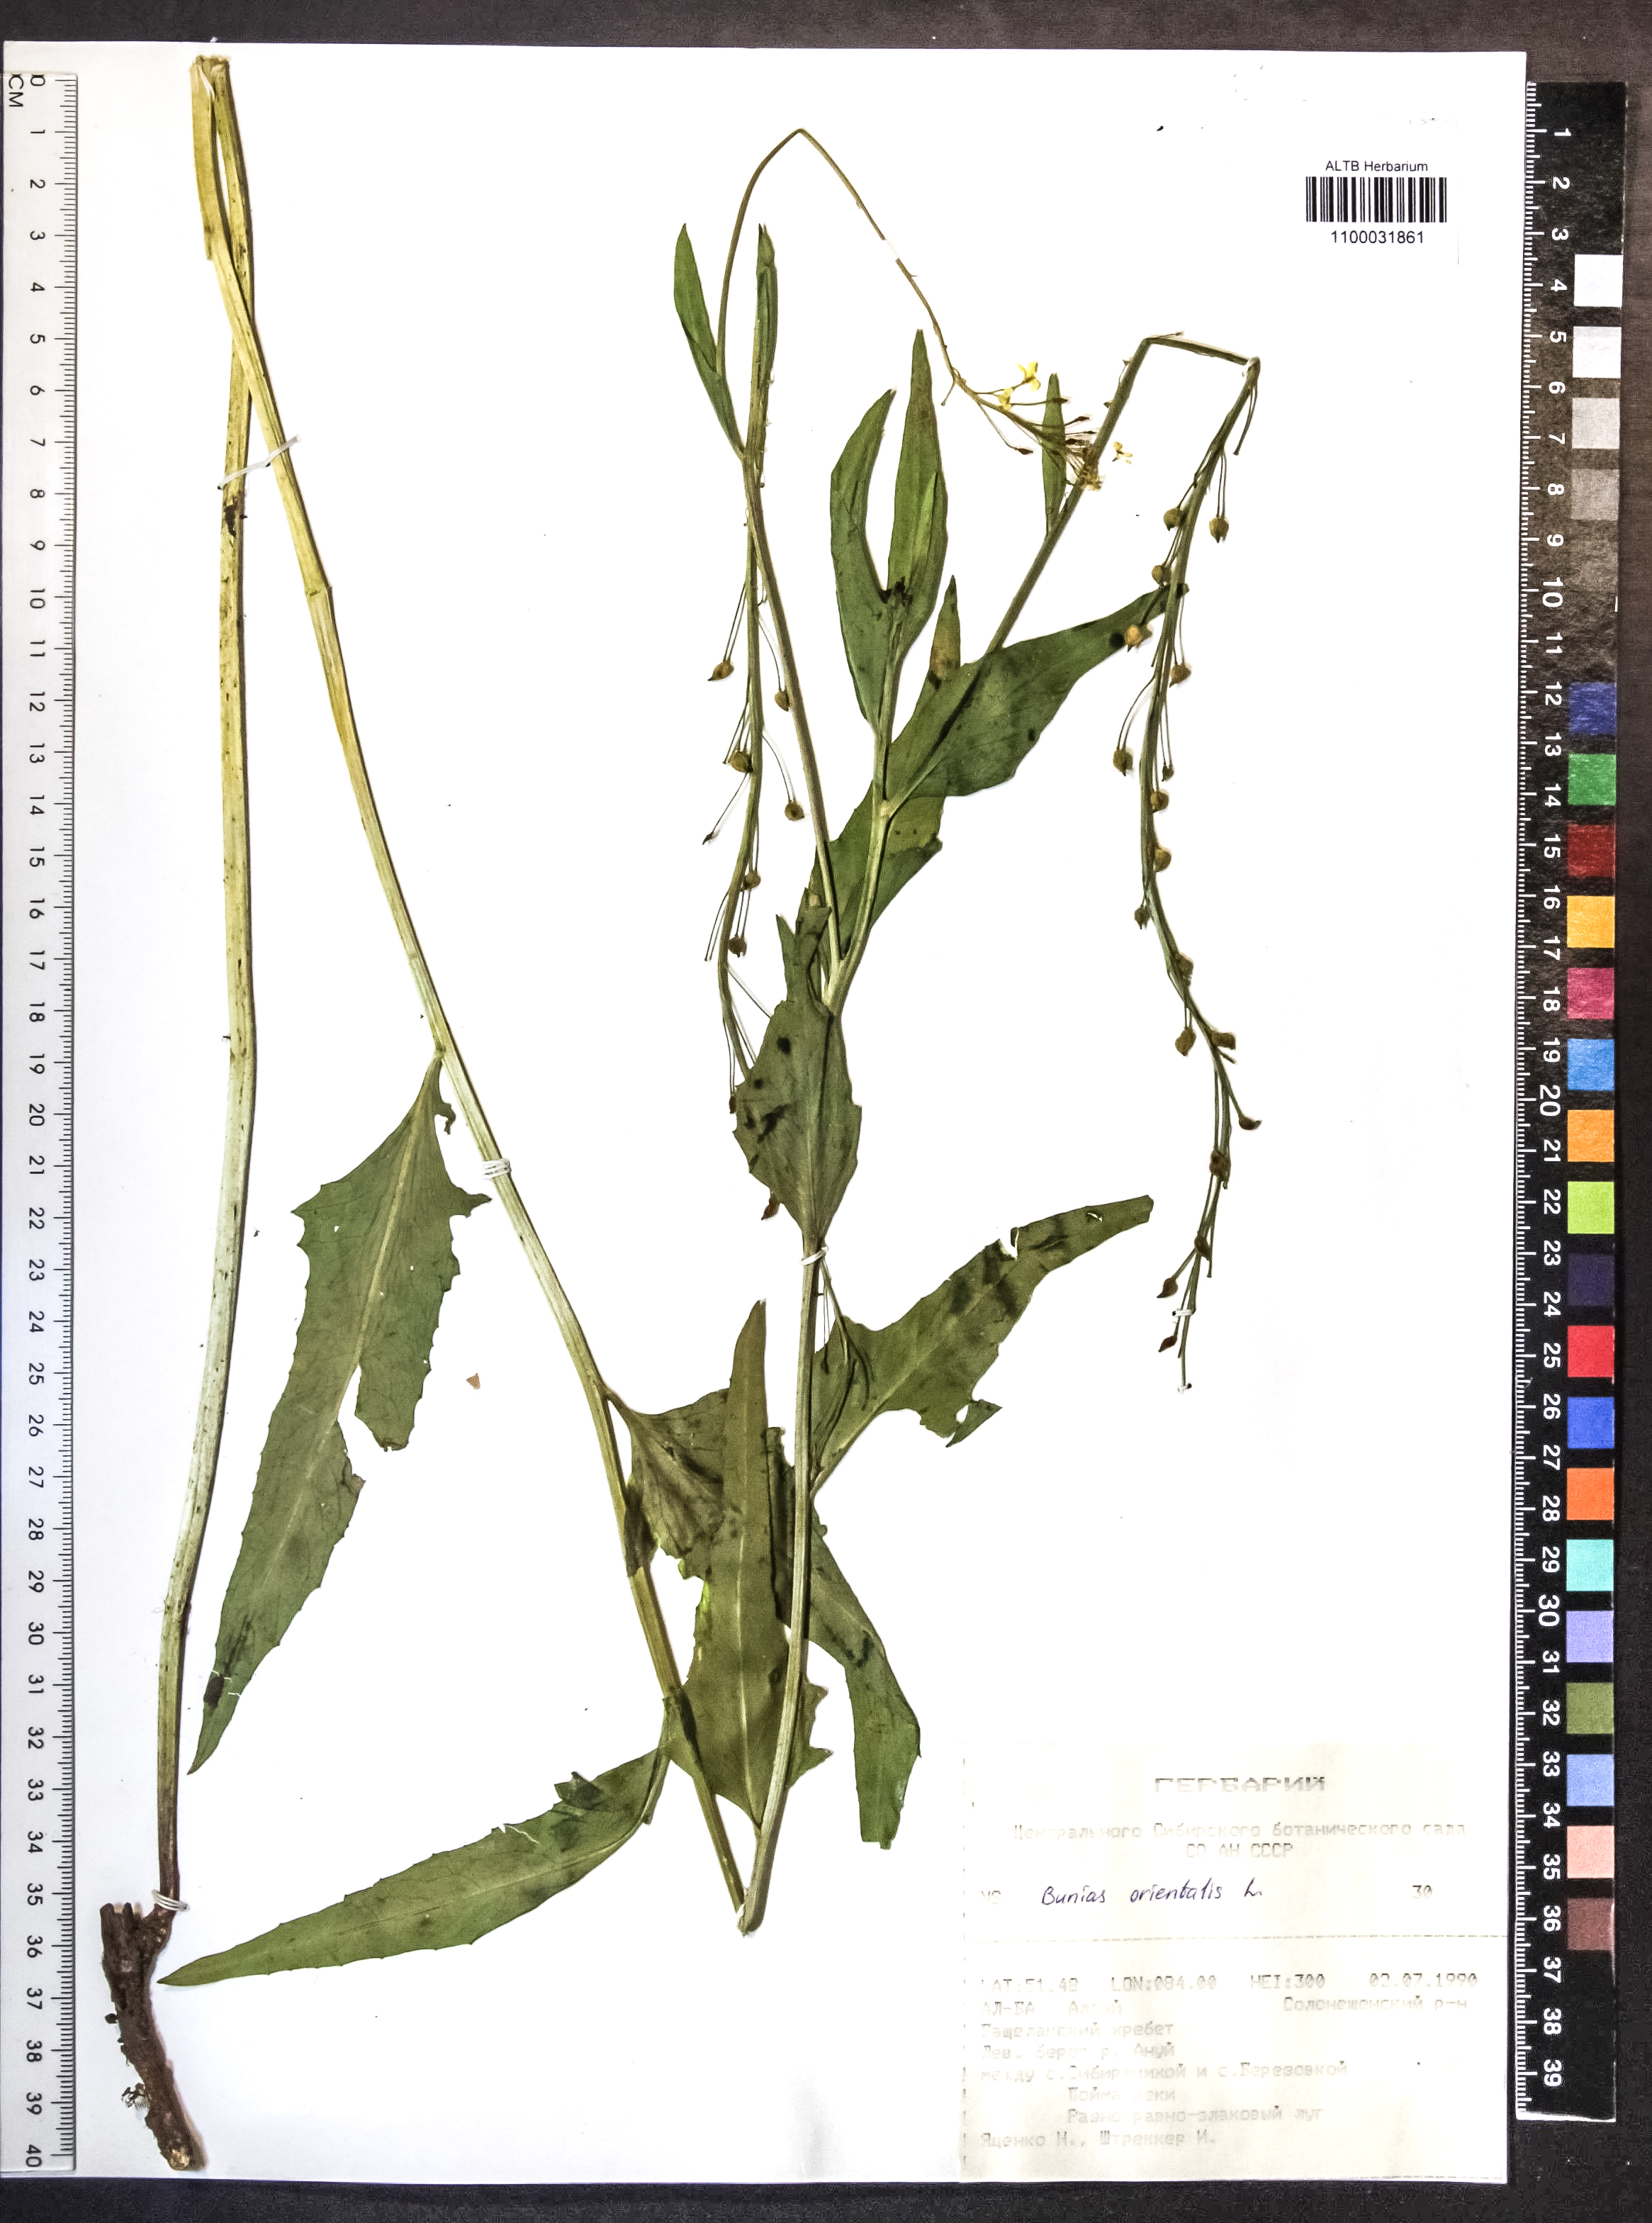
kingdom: Plantae
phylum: Tracheophyta
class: Magnoliopsida
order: Brassicales
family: Brassicaceae
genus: Bunias
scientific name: Bunias orientalis
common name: Warty-cabbage
